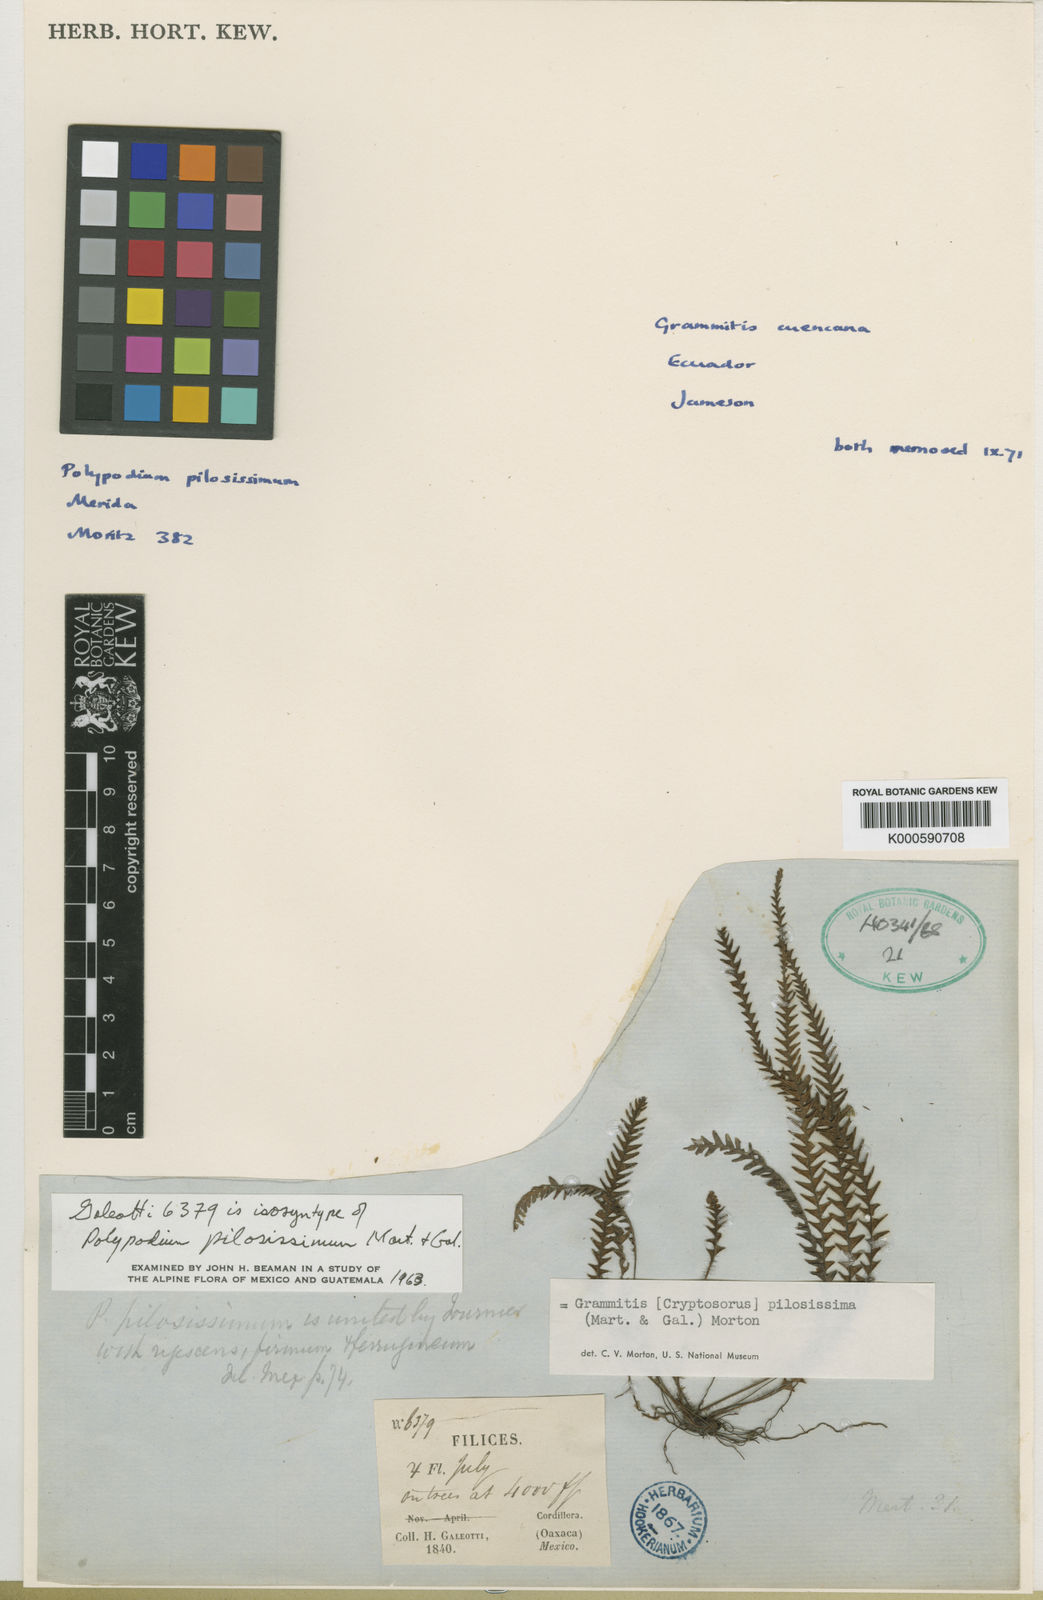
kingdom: Plantae
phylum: Tracheophyta
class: Polypodiopsida
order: Polypodiales
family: Polypodiaceae
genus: Melpomene
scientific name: Melpomene
